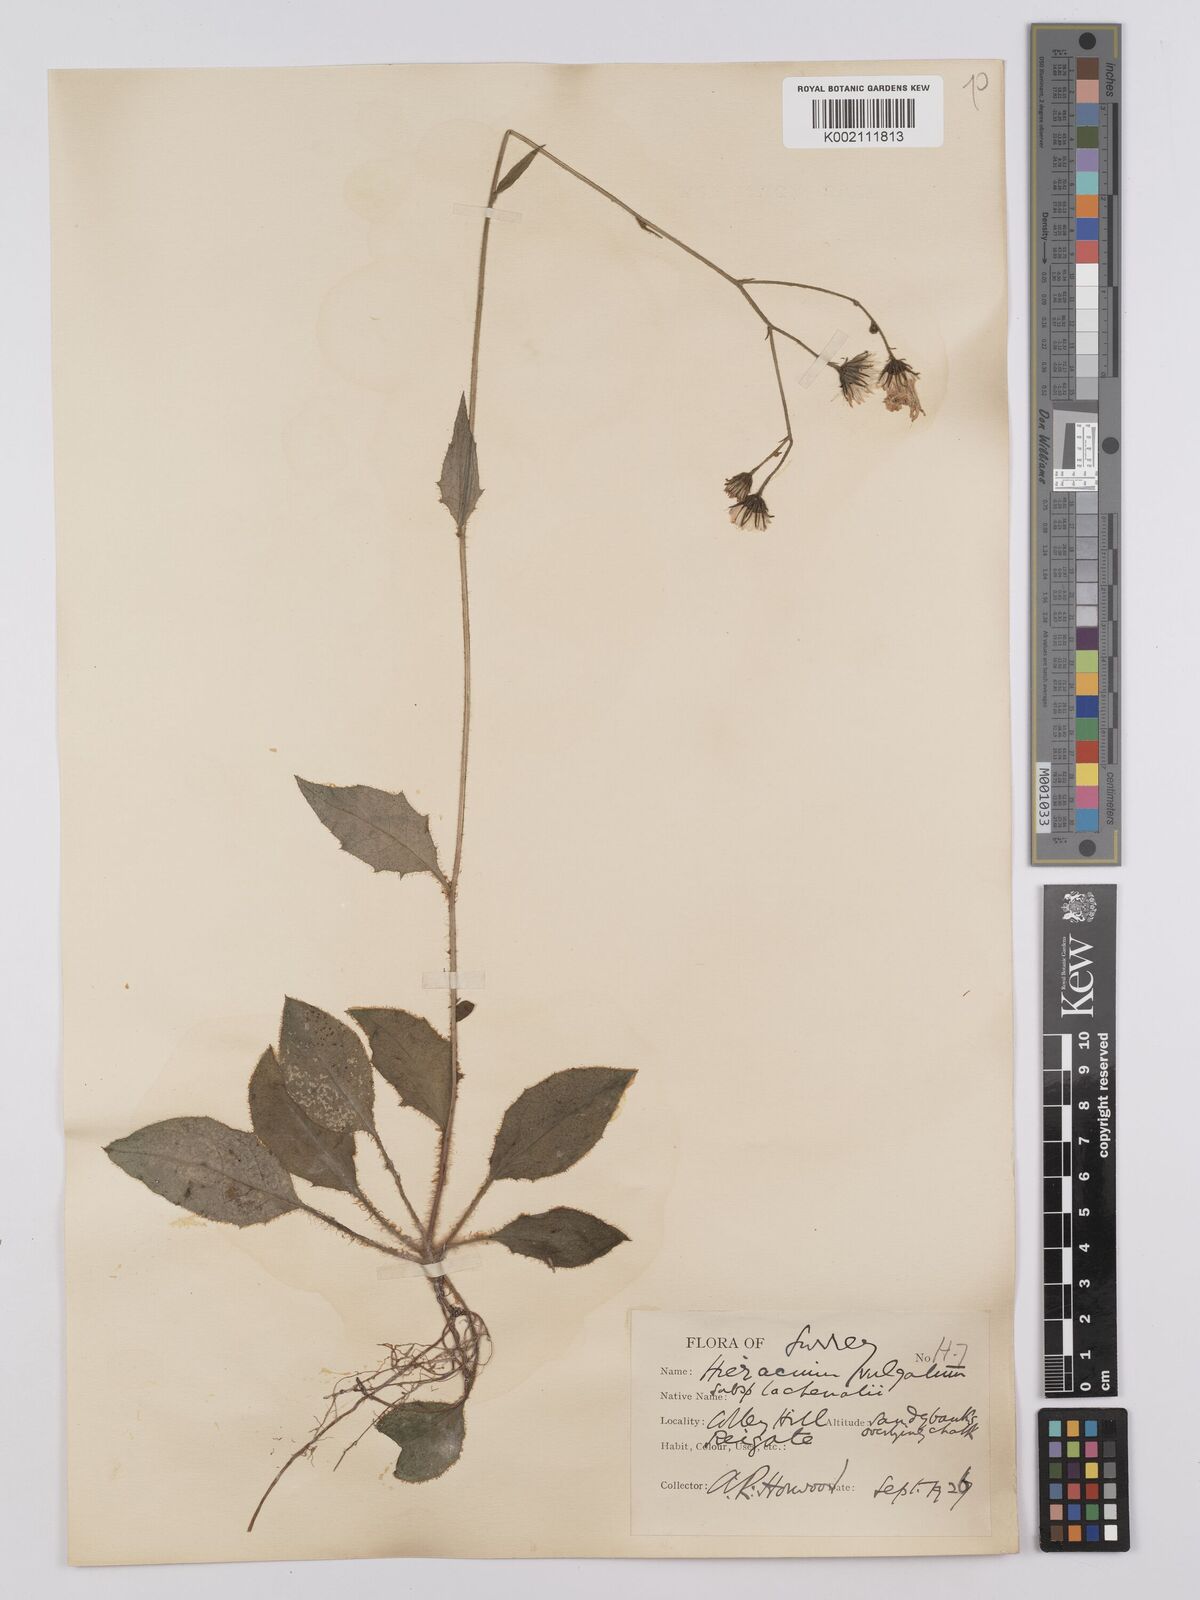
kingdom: Plantae
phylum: Tracheophyta
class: Magnoliopsida
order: Asterales
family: Asteraceae
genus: Hieracium
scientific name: Hieracium lachenalii
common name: Common hawkweed
